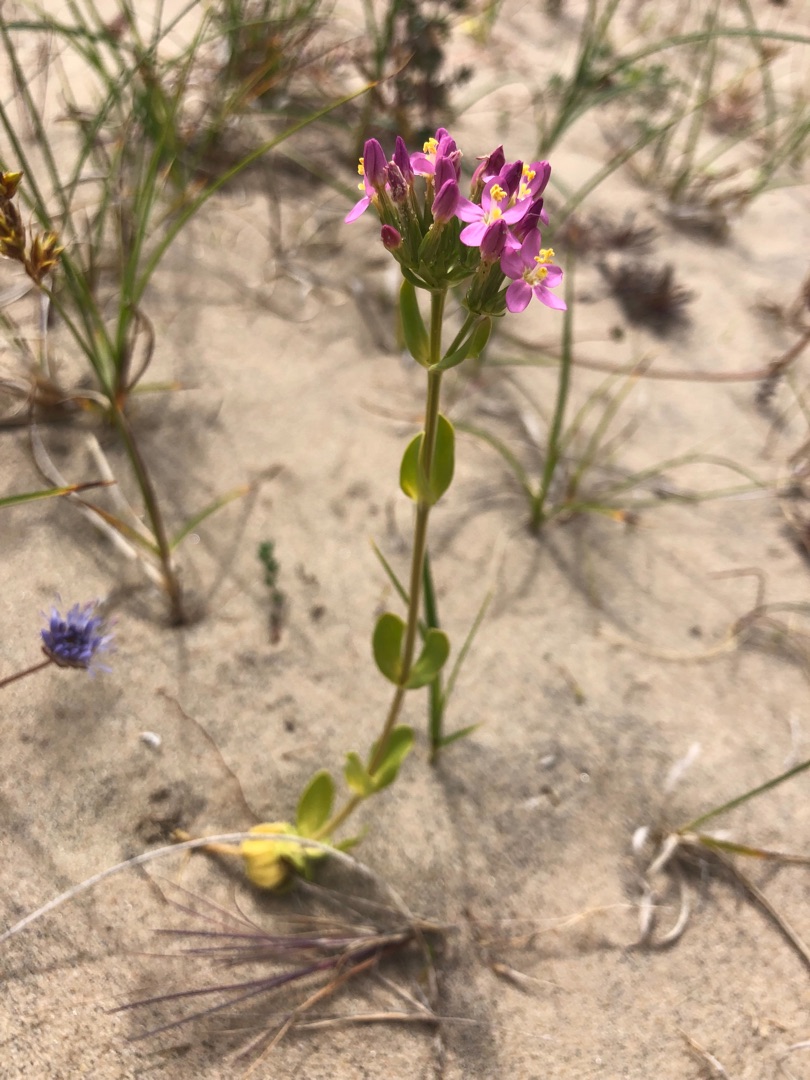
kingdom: Plantae
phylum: Tracheophyta
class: Magnoliopsida
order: Gentianales
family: Gentianaceae
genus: Centaurium
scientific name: Centaurium erythraea
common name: Mark-tusindgylden
